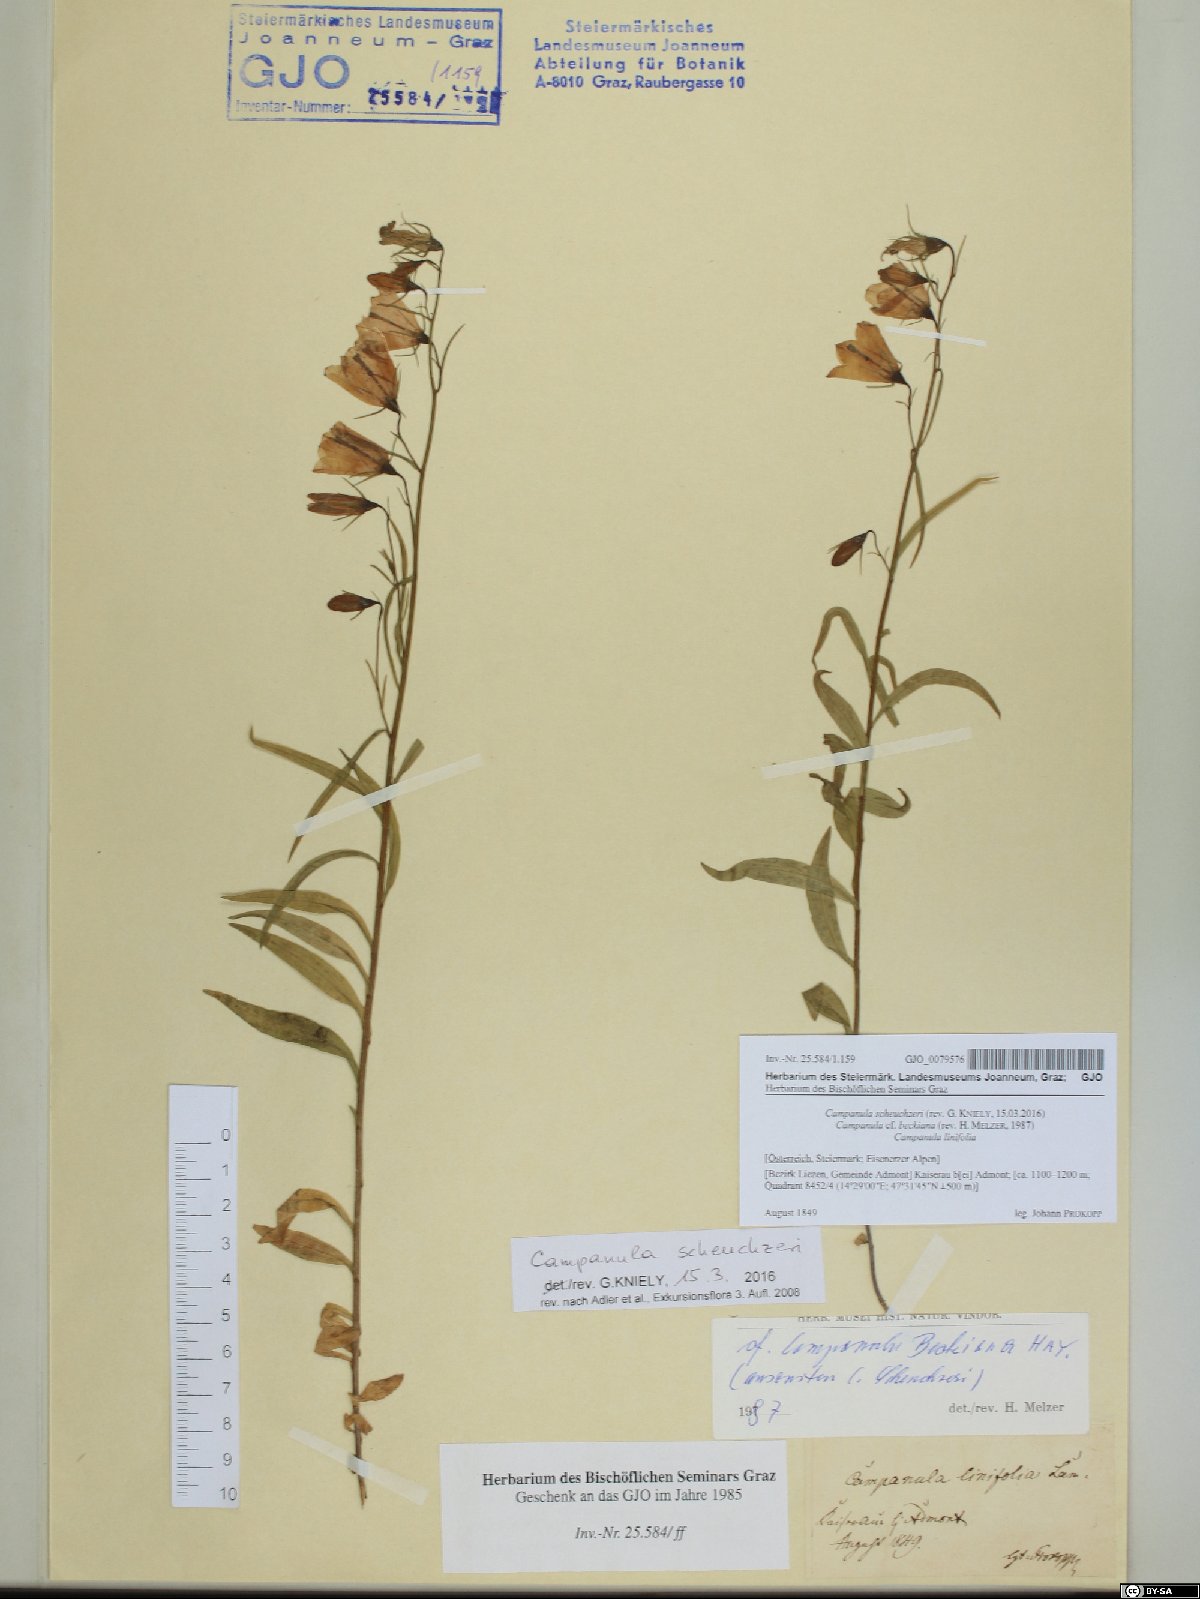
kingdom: Plantae
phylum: Tracheophyta
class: Magnoliopsida
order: Asterales
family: Campanulaceae
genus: Campanula
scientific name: Campanula scheuchzeri
